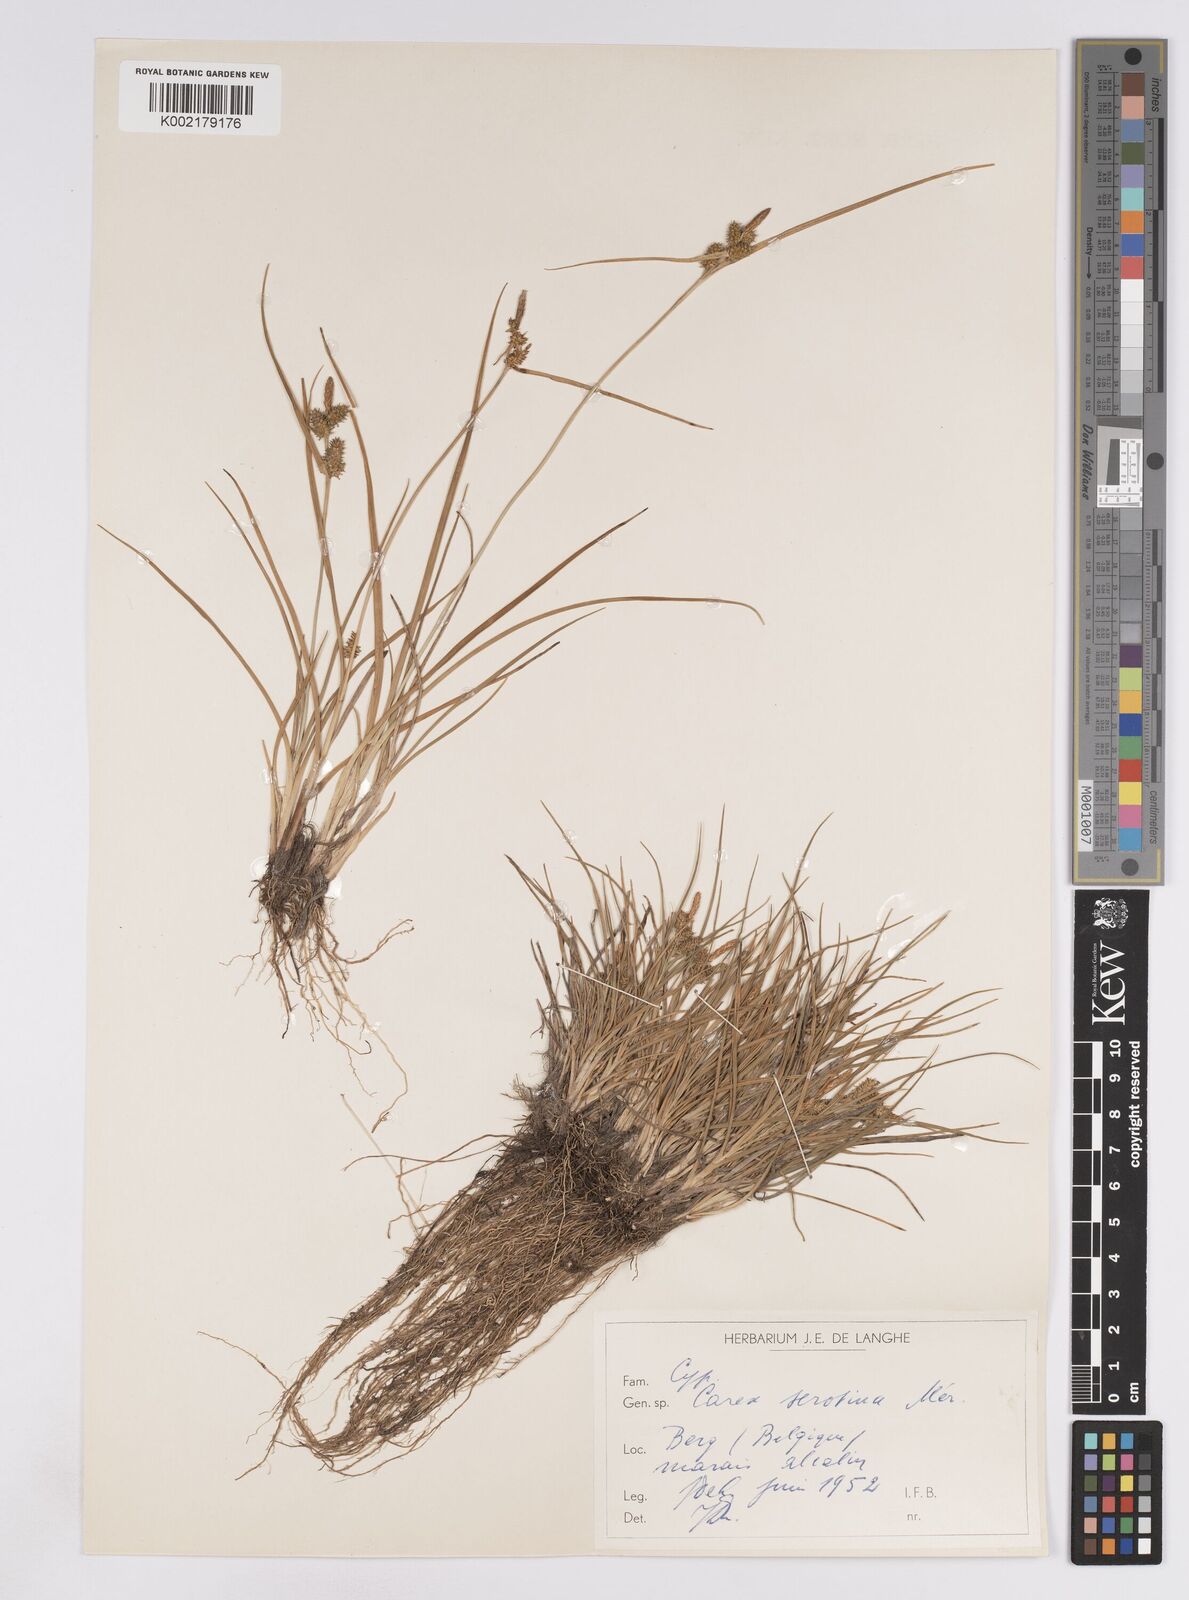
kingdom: Plantae
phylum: Tracheophyta
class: Liliopsida
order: Poales
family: Cyperaceae
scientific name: Cyperaceae
